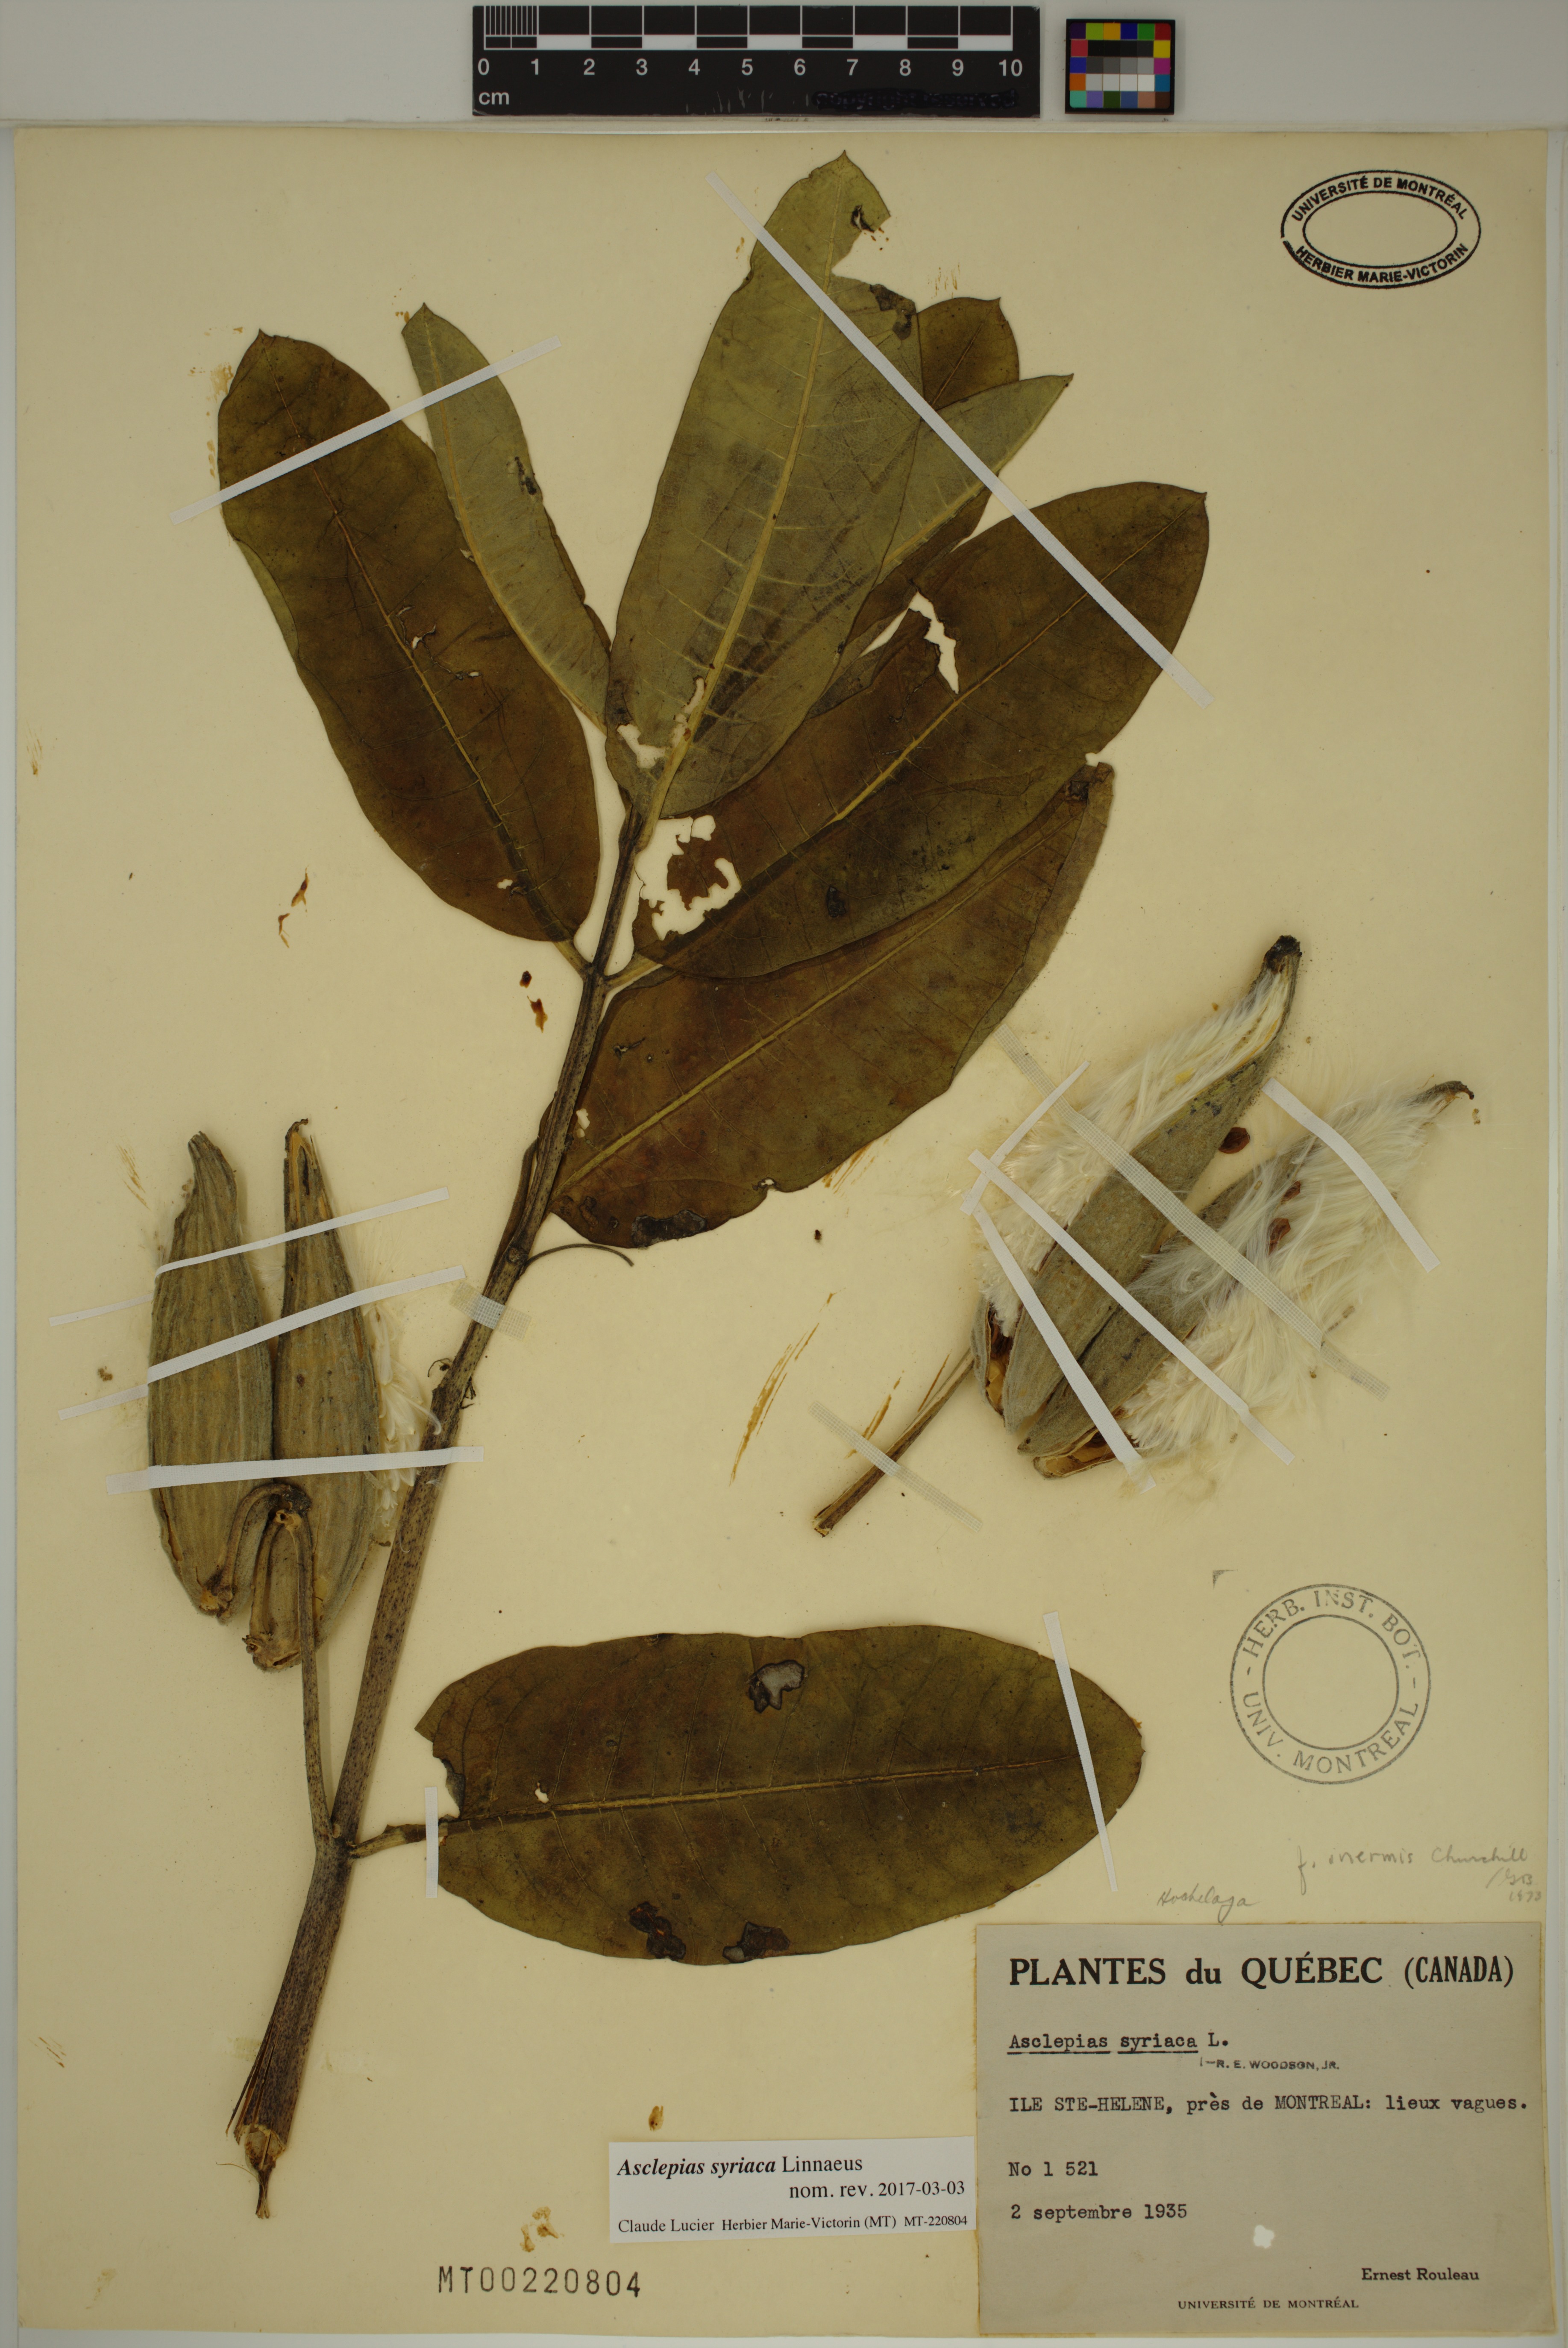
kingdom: Plantae
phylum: Tracheophyta
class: Magnoliopsida
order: Gentianales
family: Apocynaceae
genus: Asclepias
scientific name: Asclepias syriaca
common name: Common milkweed
